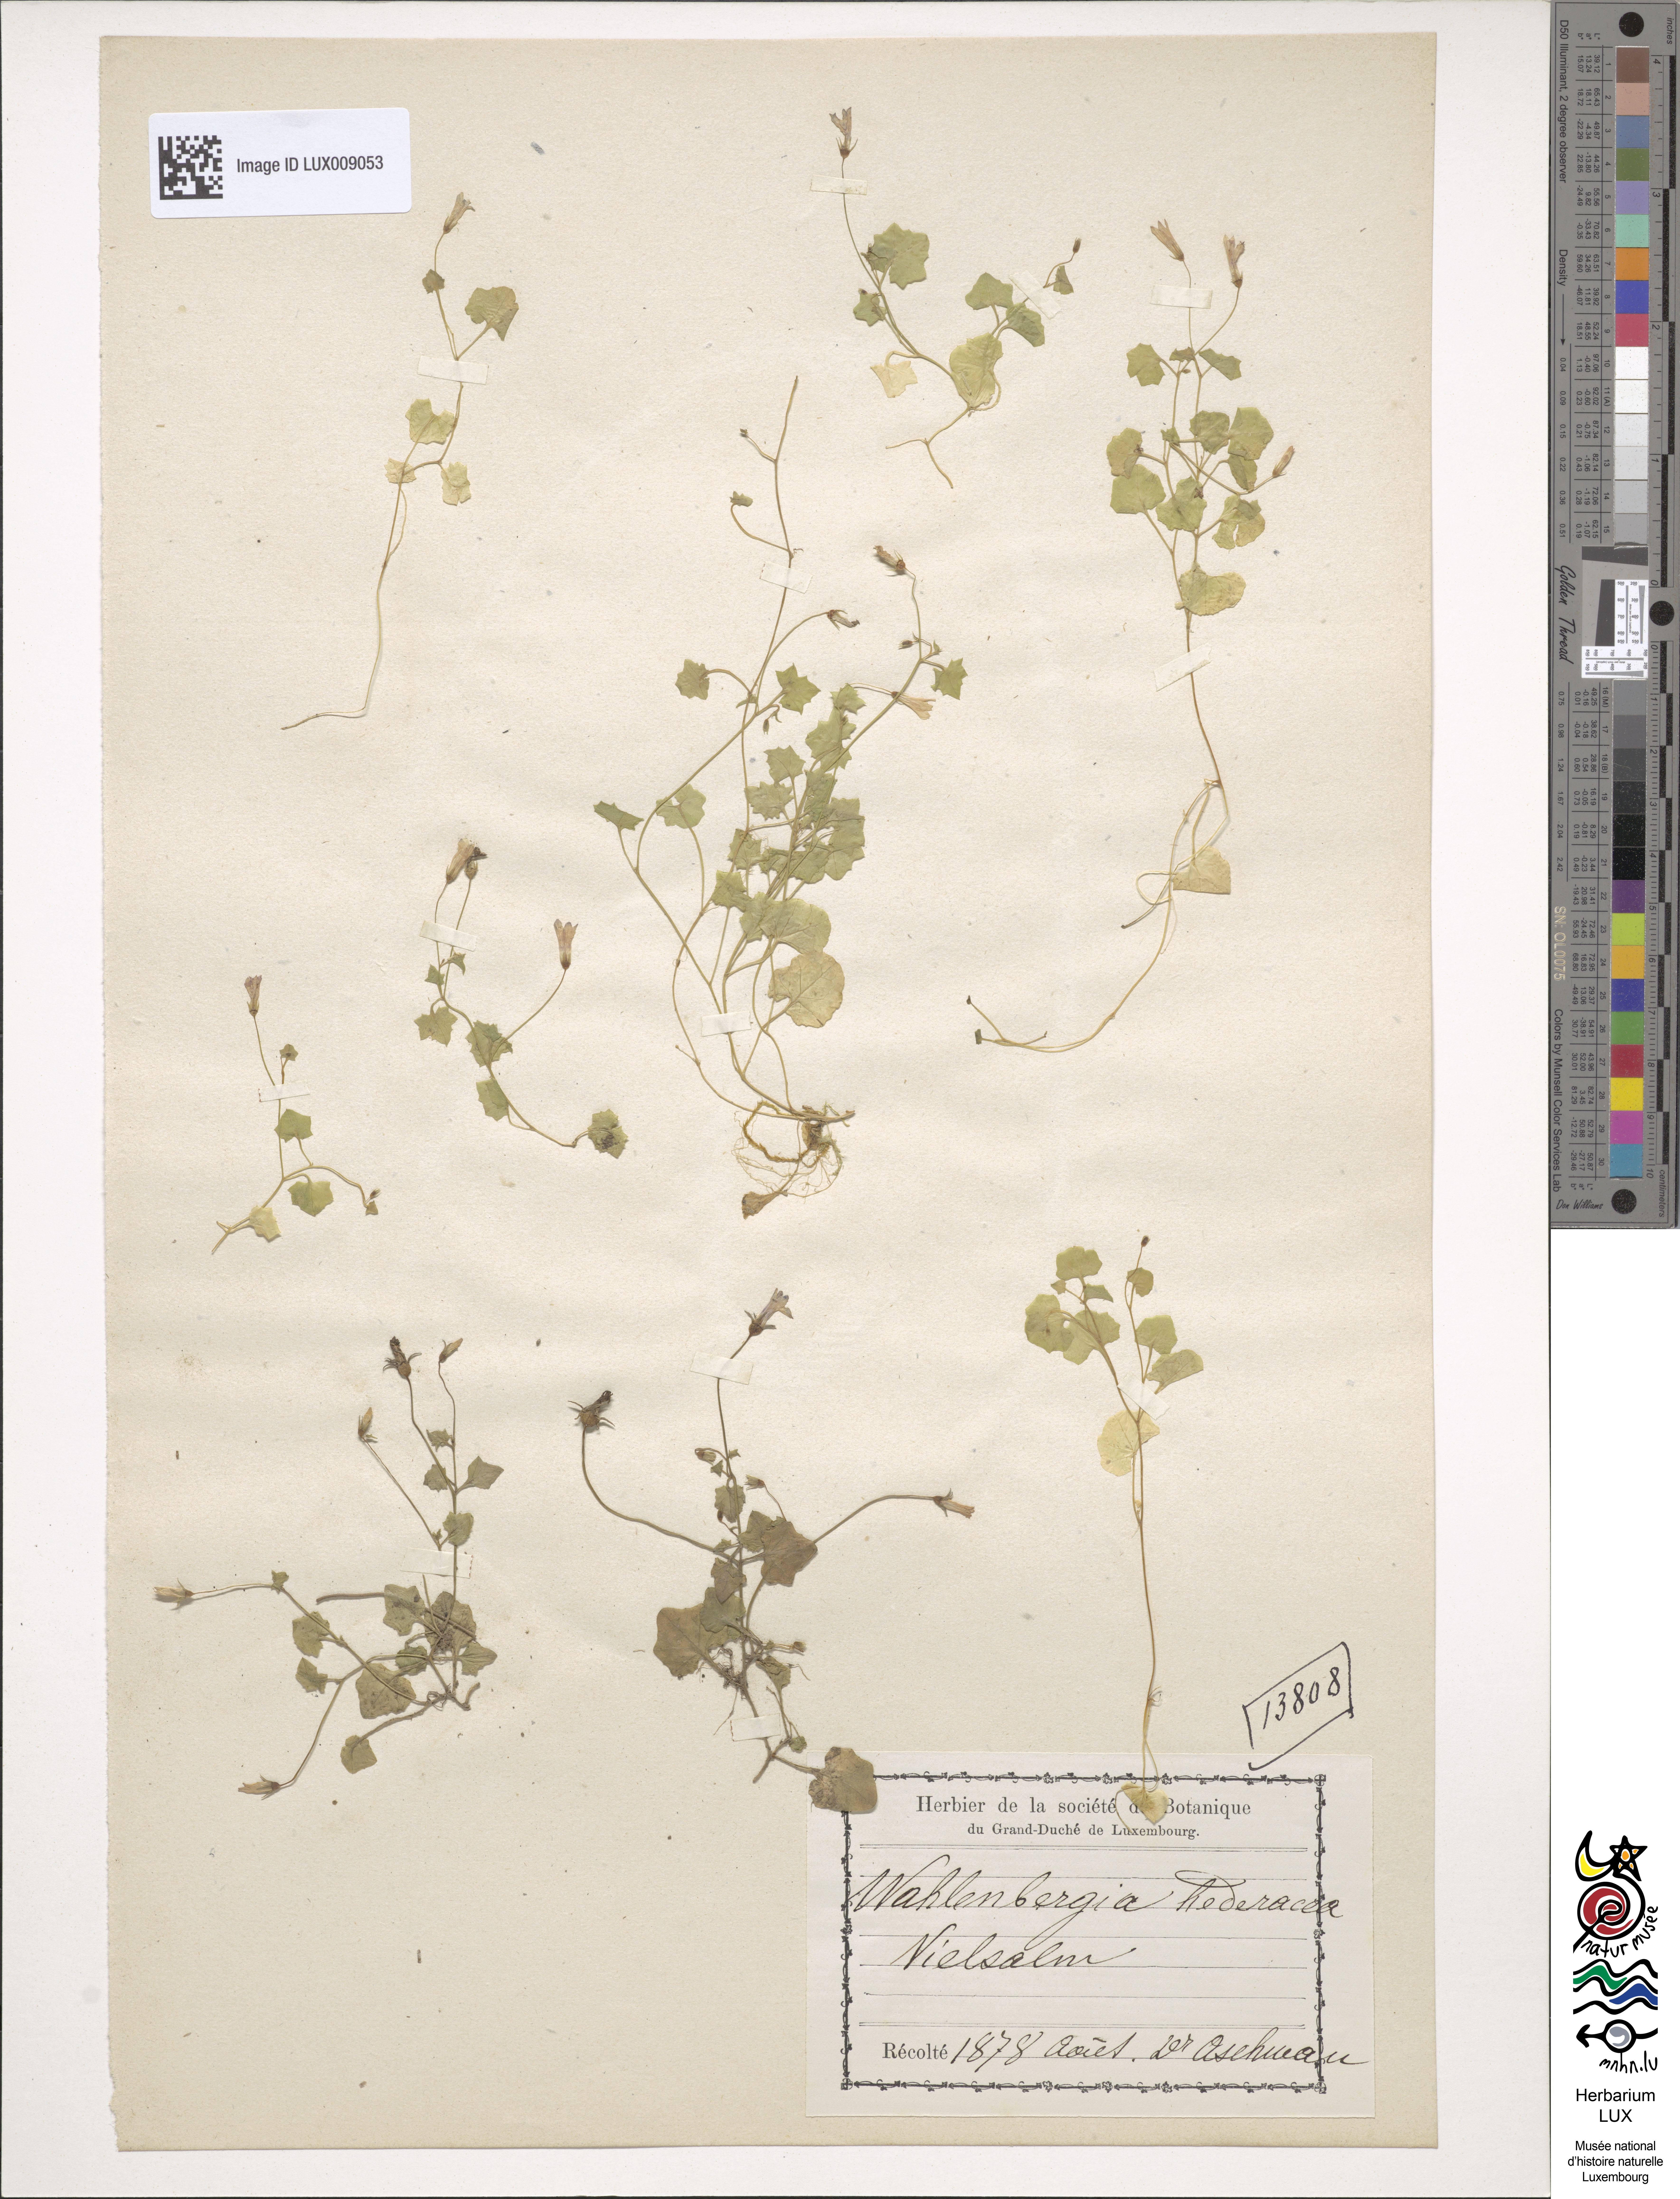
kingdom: Plantae
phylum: Tracheophyta
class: Magnoliopsida
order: Asterales
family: Campanulaceae
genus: Hesperocodon
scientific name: Hesperocodon hederaceus
